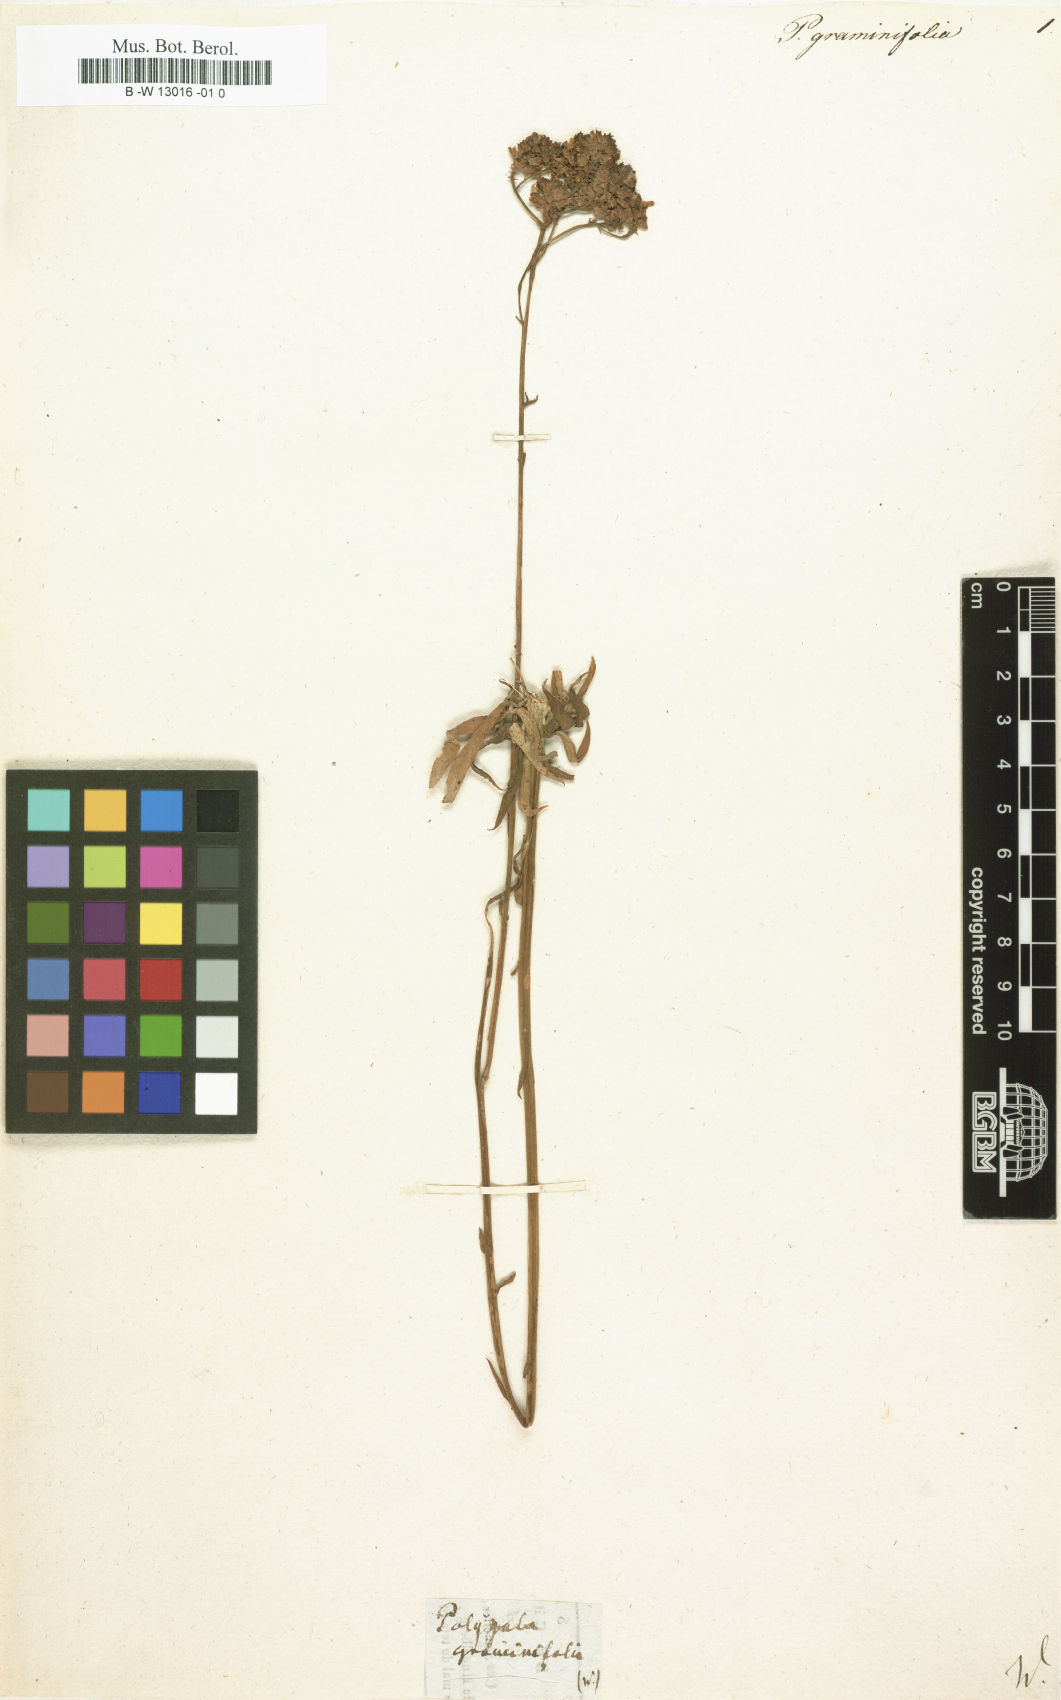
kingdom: Plantae
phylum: Tracheophyta
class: Magnoliopsida
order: Fabales
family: Polygalaceae
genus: Polygala
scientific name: Polygala cymosa
